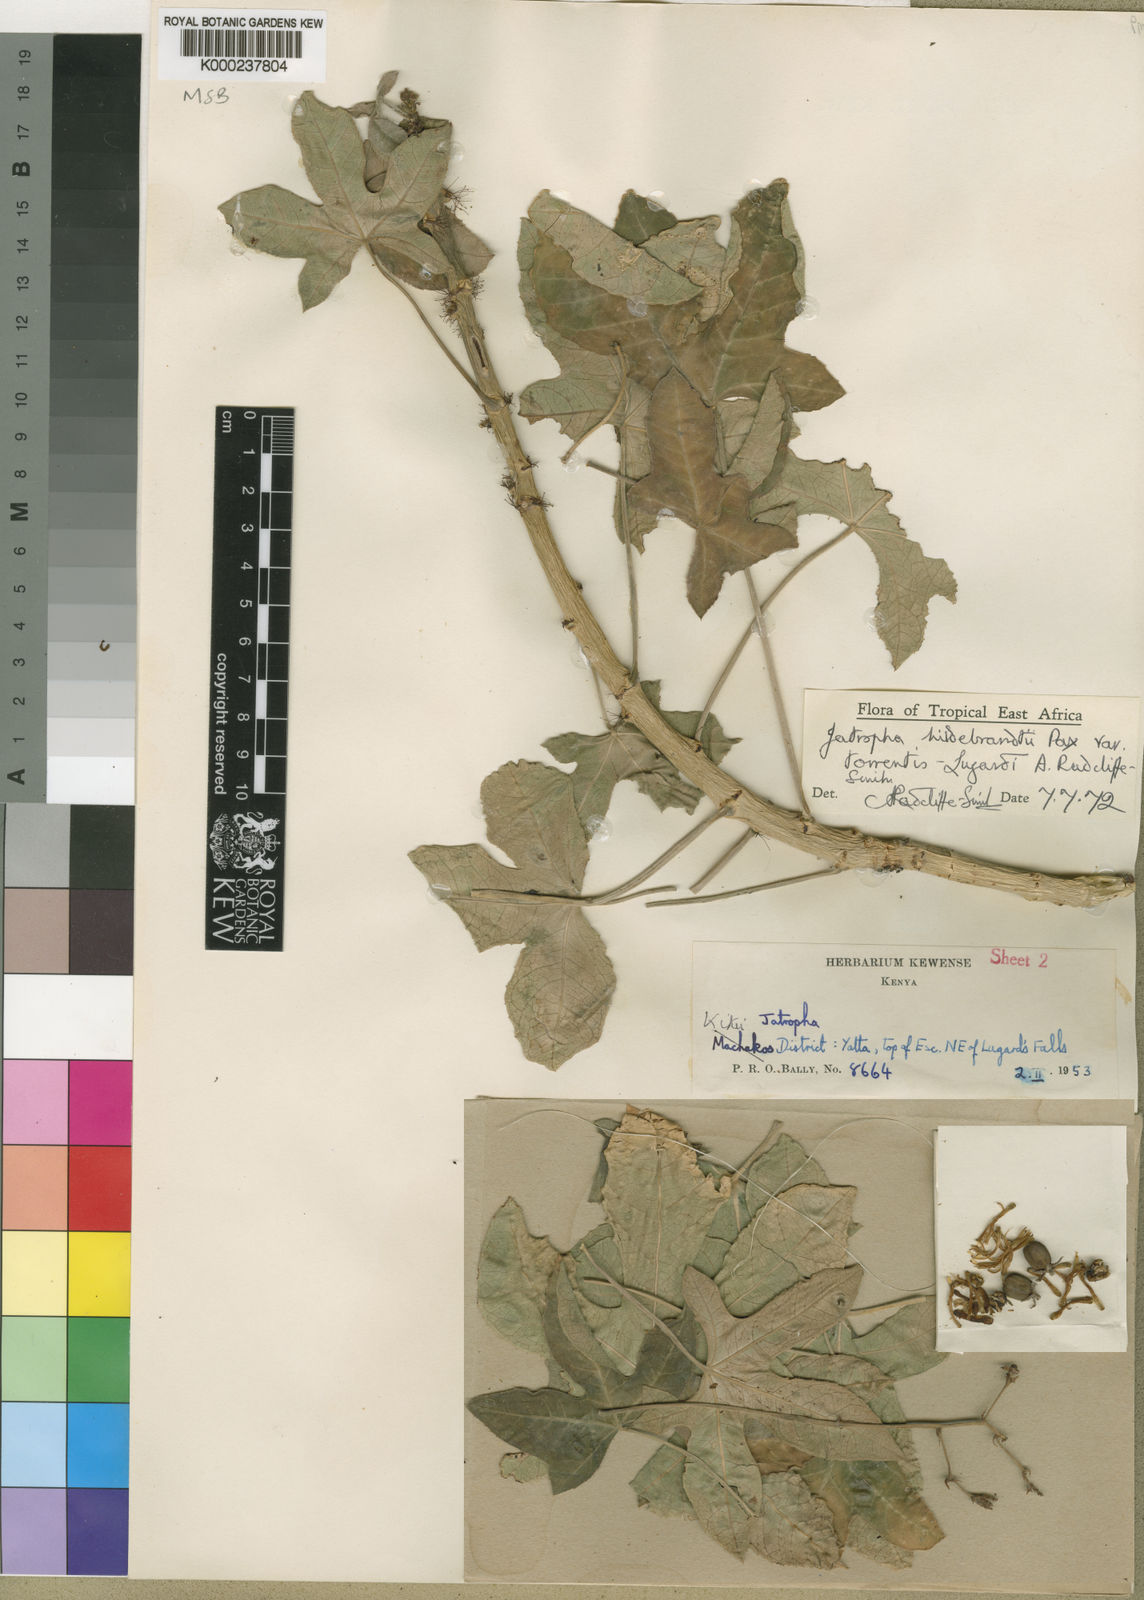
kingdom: Plantae
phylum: Tracheophyta
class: Magnoliopsida
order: Malpighiales
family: Euphorbiaceae
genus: Jatropha
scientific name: Jatropha hildebrandtii
